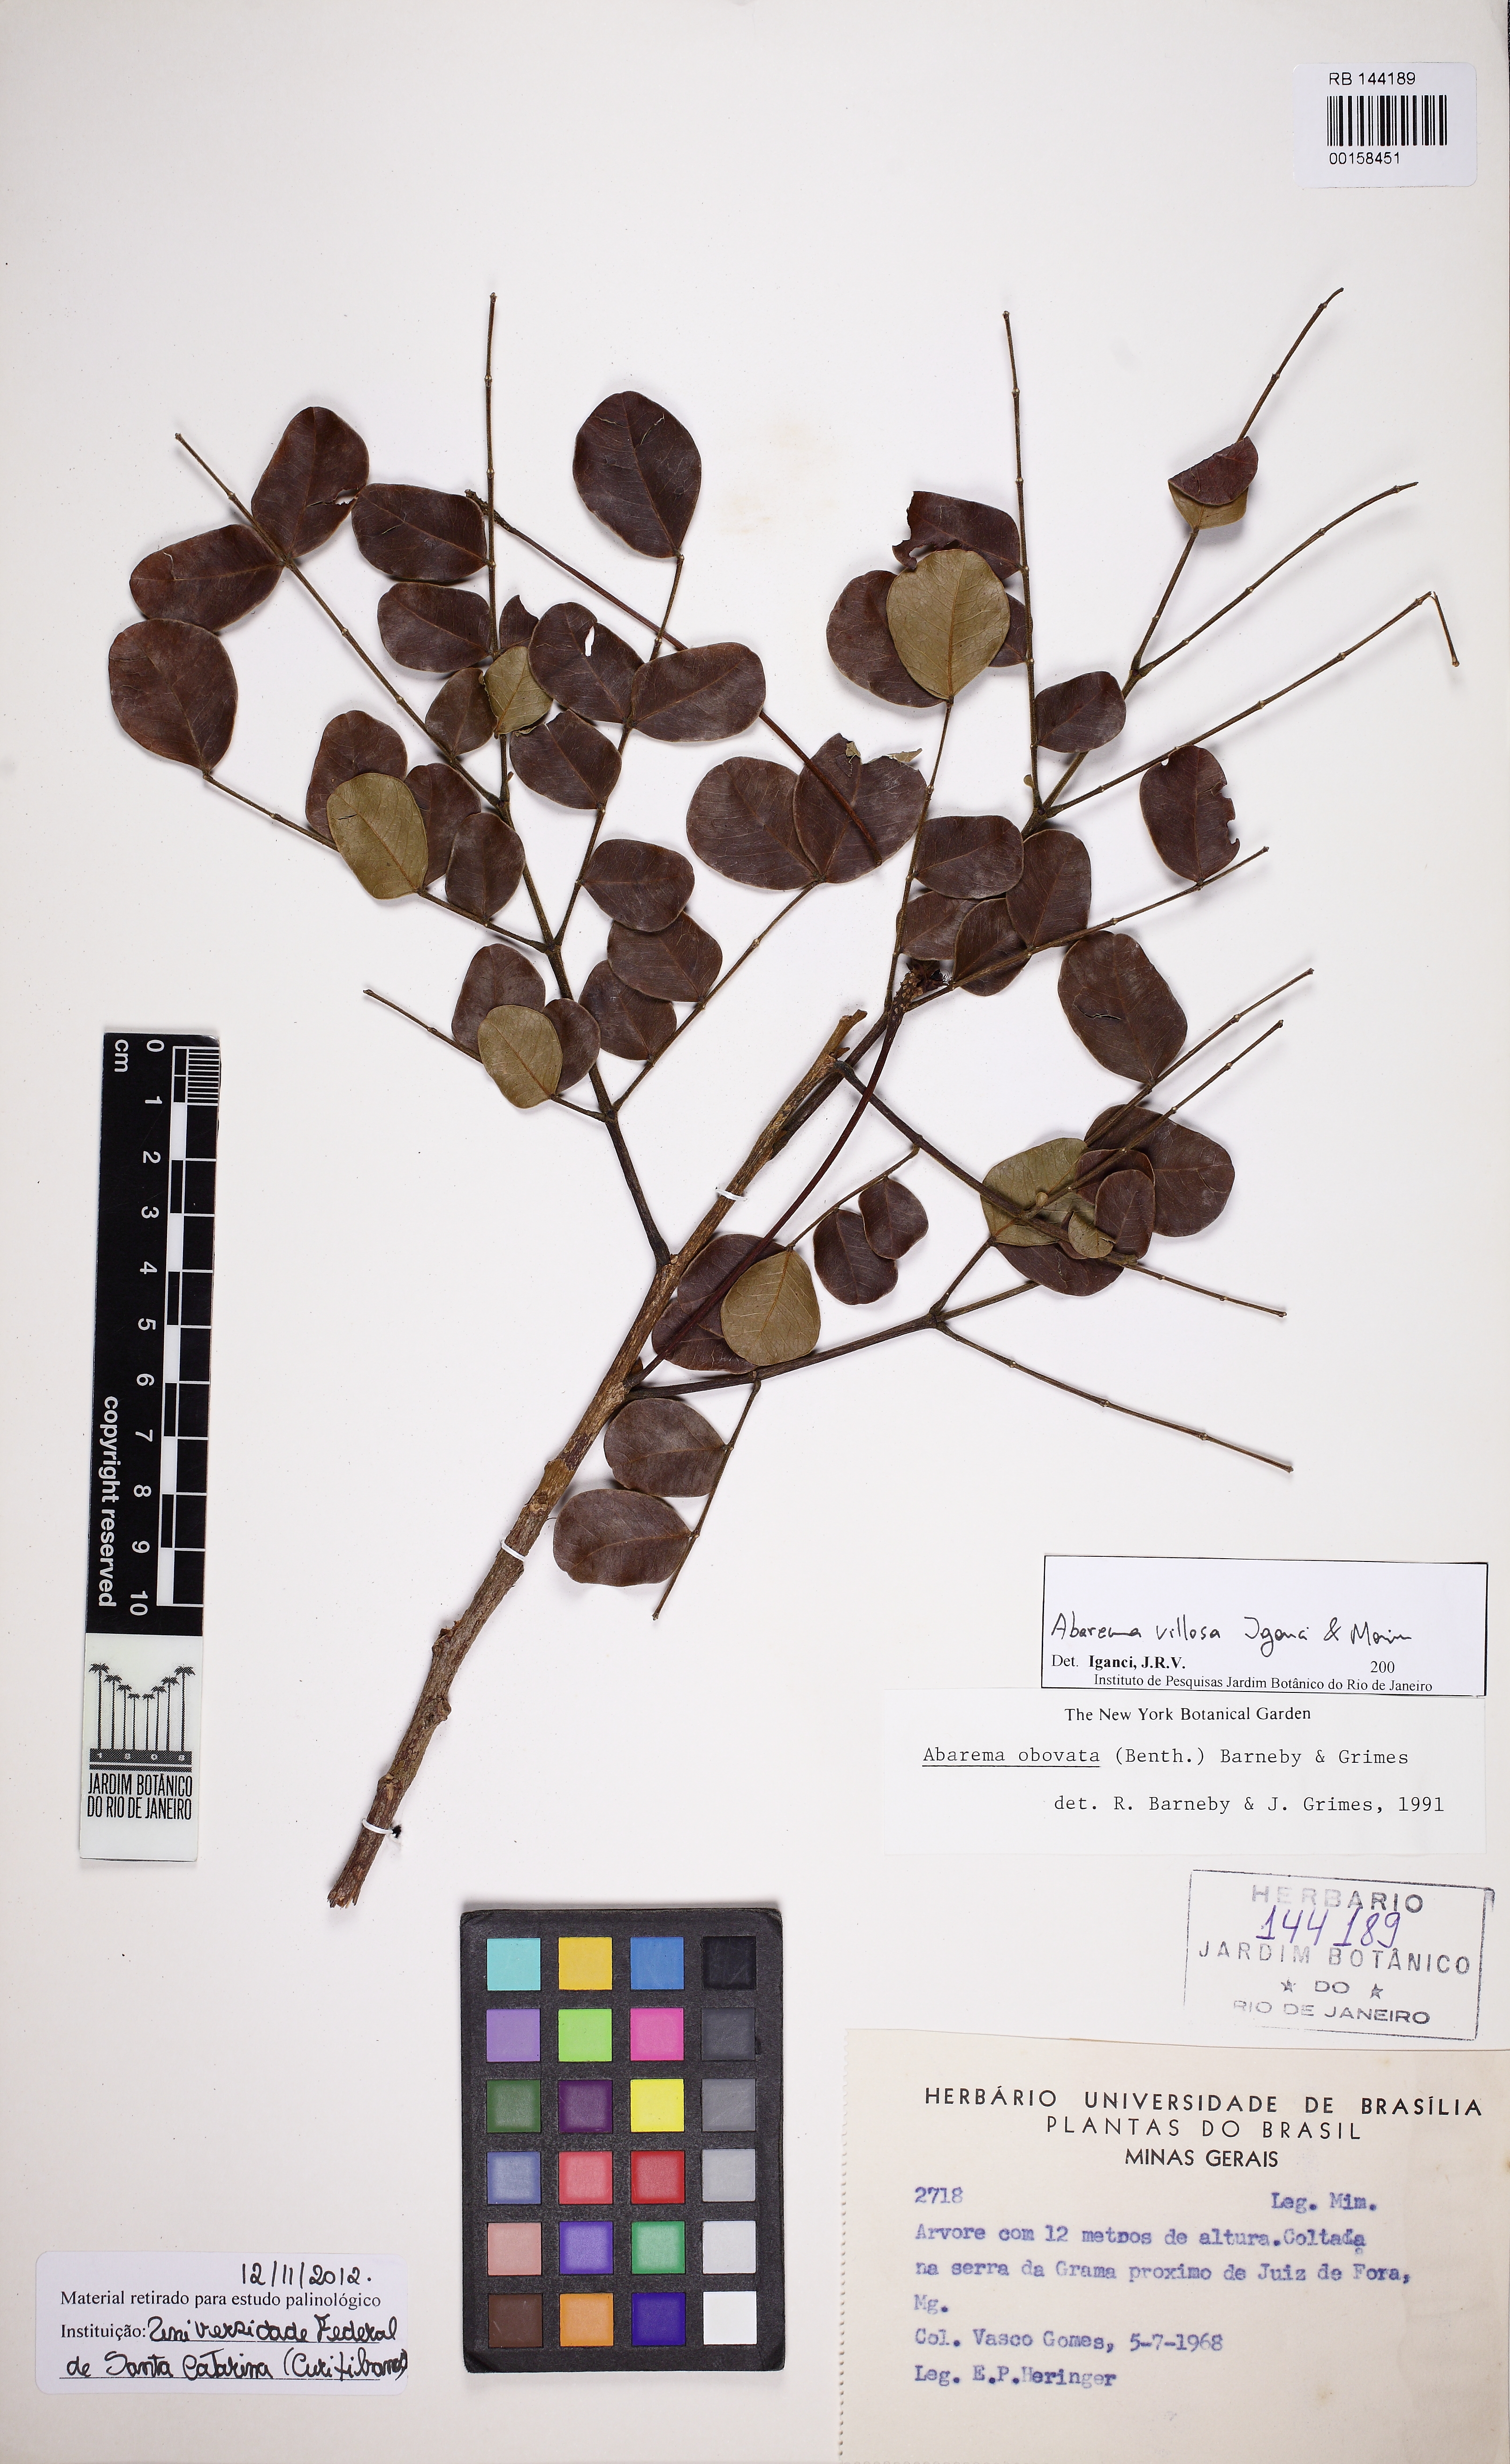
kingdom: Plantae
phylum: Tracheophyta
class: Magnoliopsida
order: Fabales
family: Fabaceae
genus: Jupunba
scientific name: Jupunba villosa
